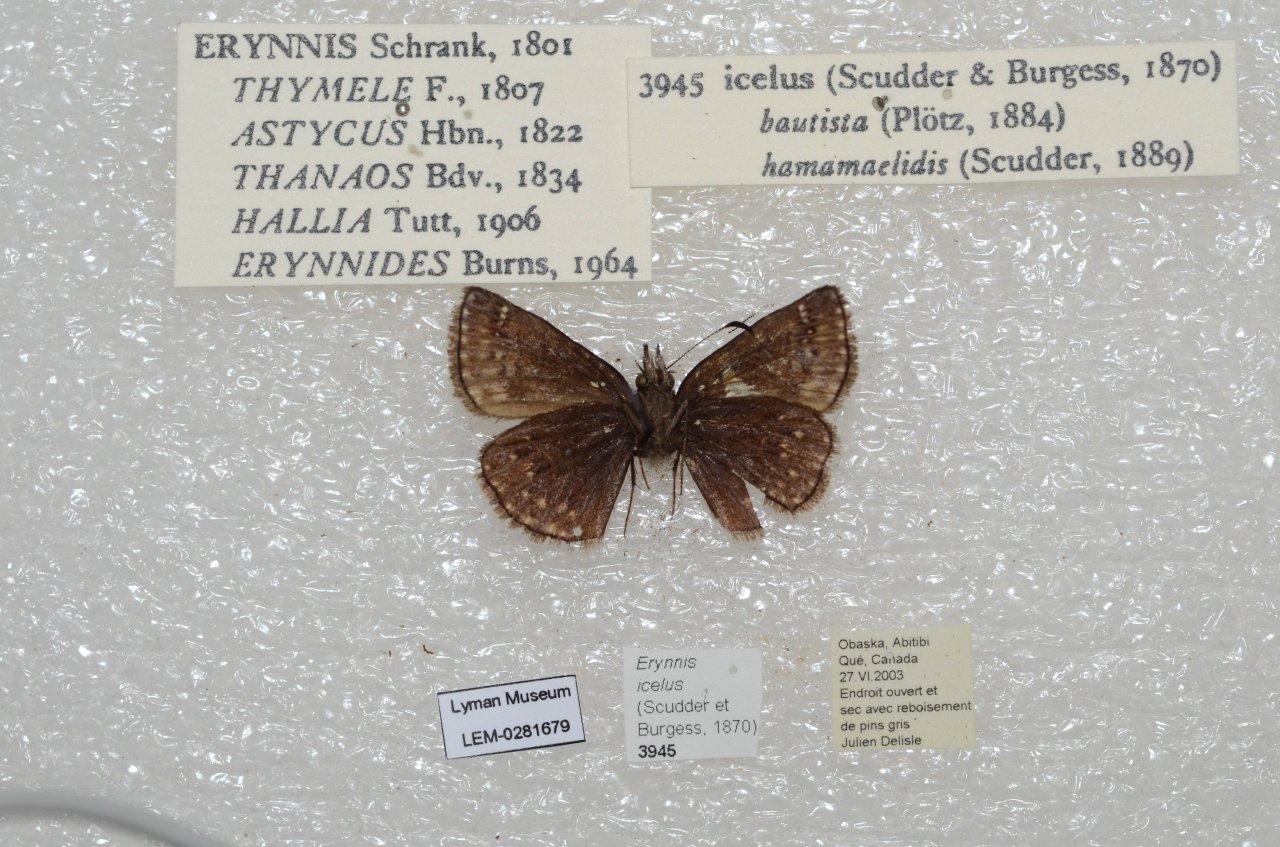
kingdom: Animalia
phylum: Arthropoda
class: Insecta
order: Lepidoptera
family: Hesperiidae
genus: Erynnis
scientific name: Erynnis icelus
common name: Dreamy Duskywing
